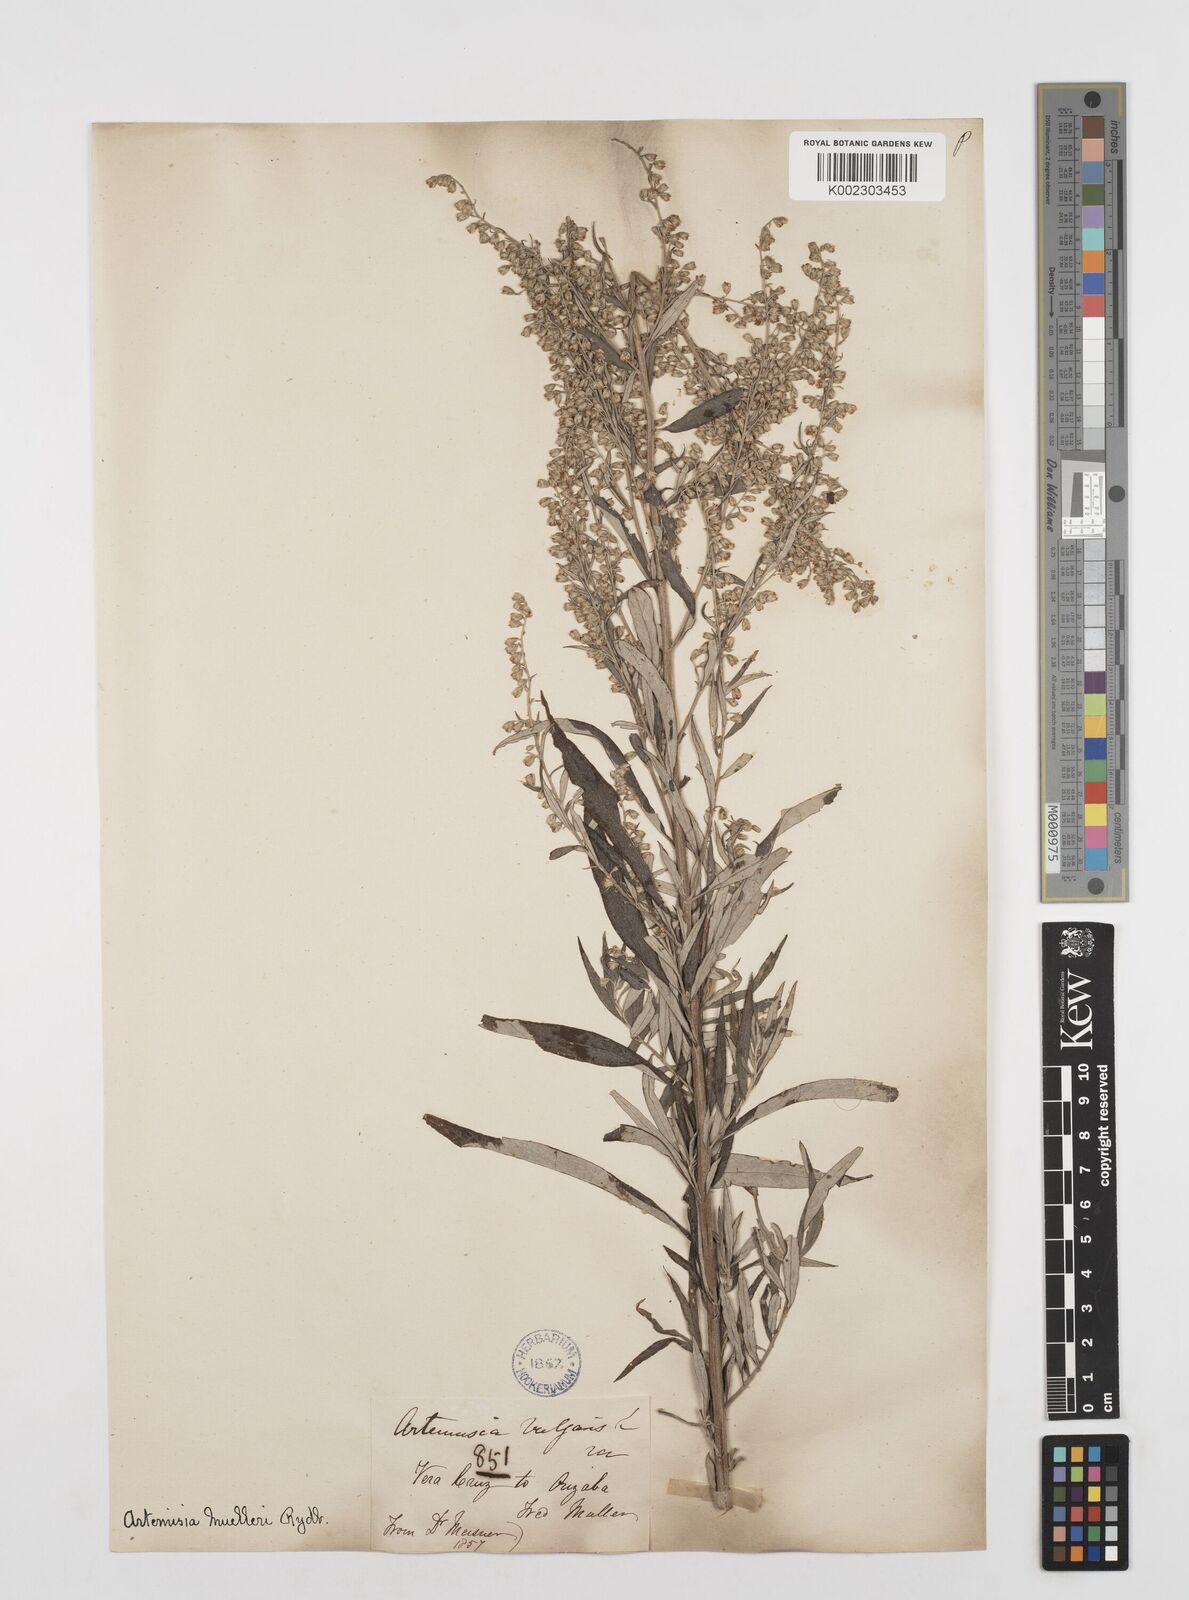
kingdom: Plantae
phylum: Tracheophyta
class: Magnoliopsida
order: Asterales
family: Asteraceae
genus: Artemisia
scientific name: Artemisia ludoviciana
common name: Western mugwort
